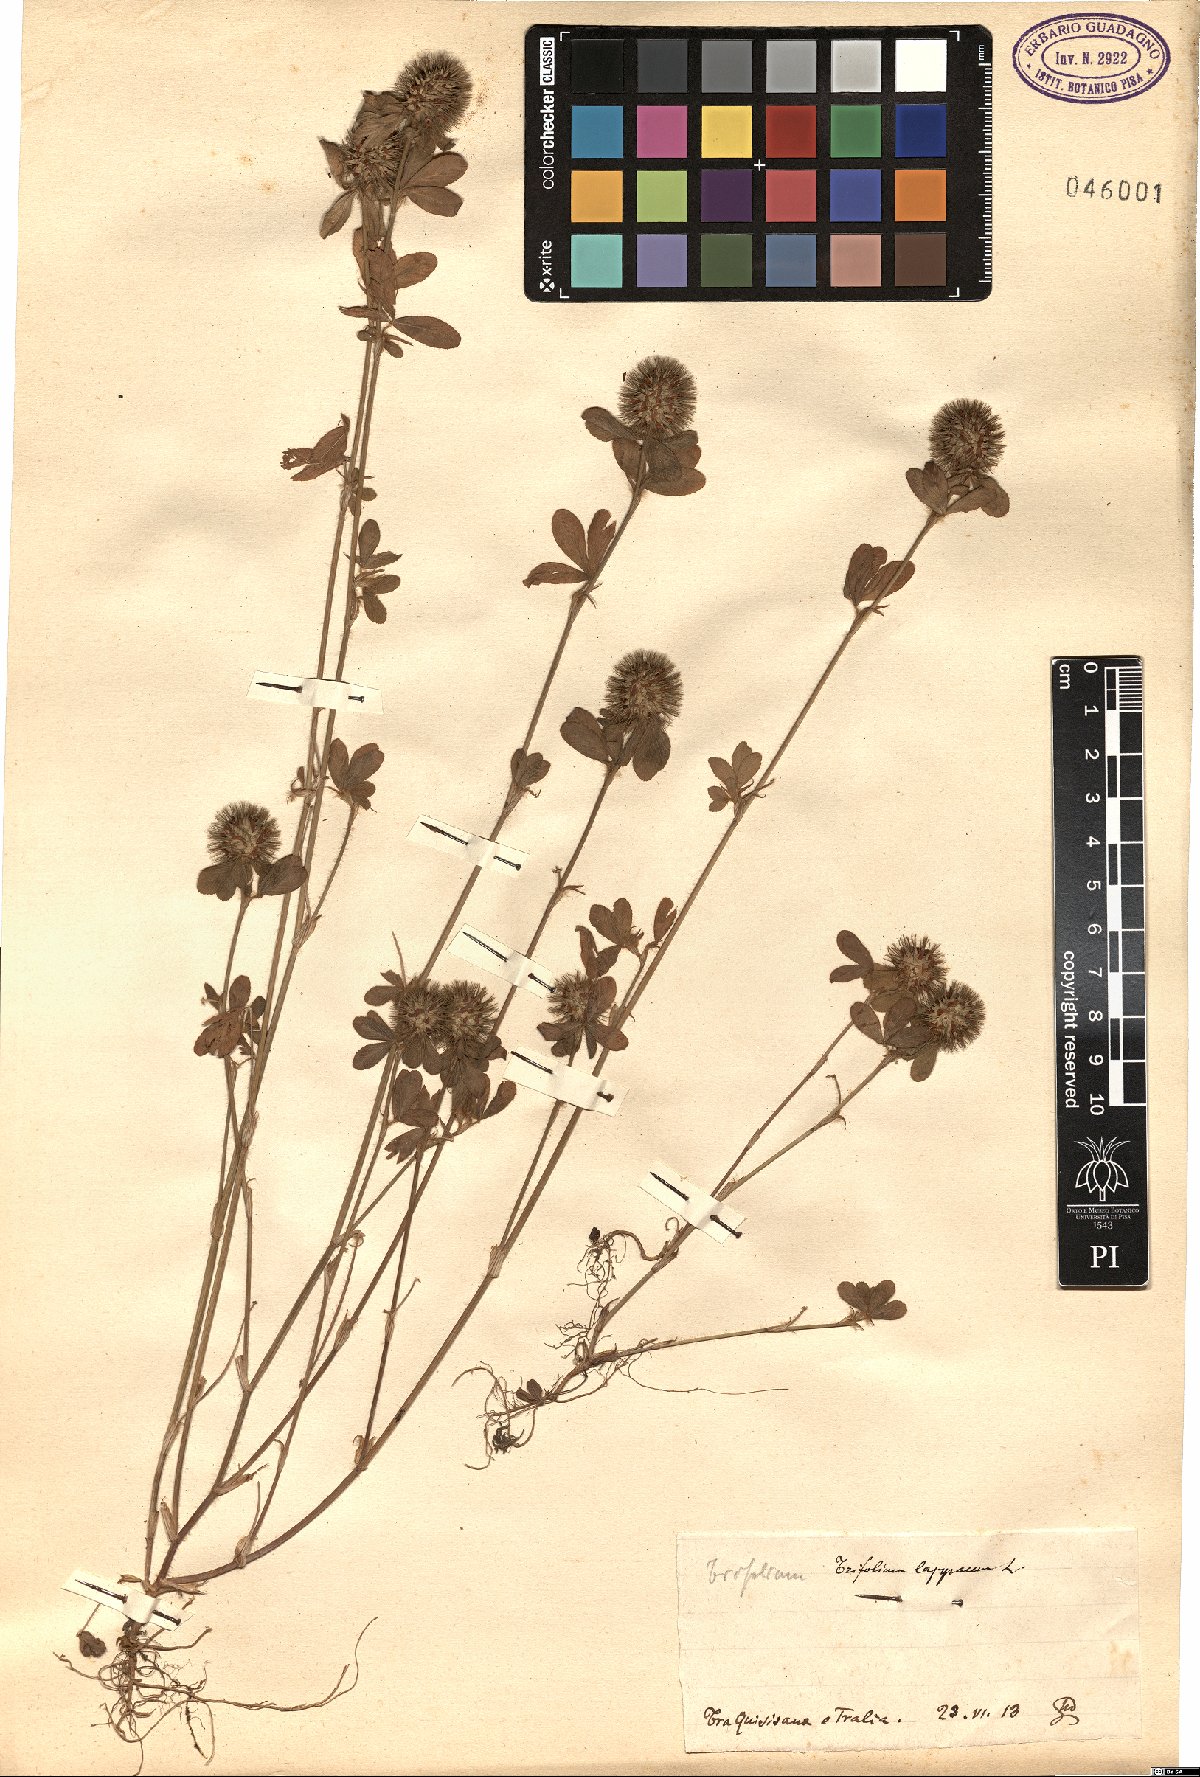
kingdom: Plantae
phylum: Tracheophyta
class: Magnoliopsida
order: Fabales
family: Fabaceae
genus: Trifolium
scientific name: Trifolium lappaceum
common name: Bur clover
